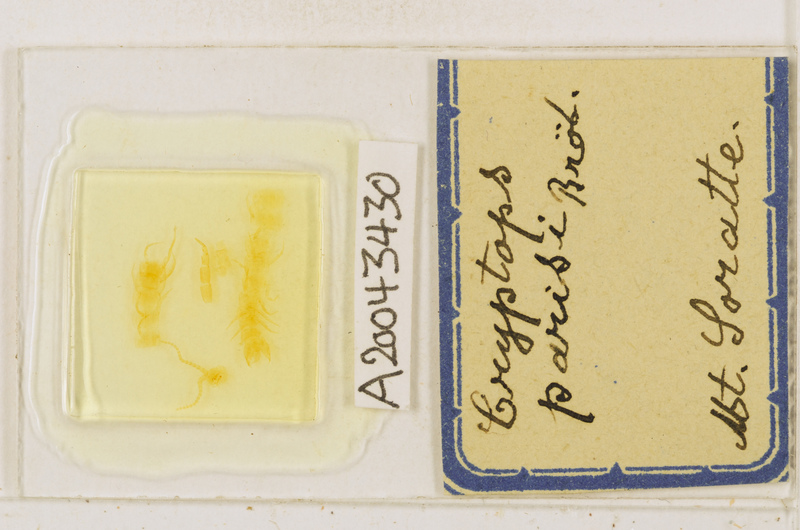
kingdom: Animalia
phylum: Arthropoda
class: Chilopoda
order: Scolopendromorpha
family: Cryptopidae
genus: Cryptops
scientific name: Cryptops parisi
